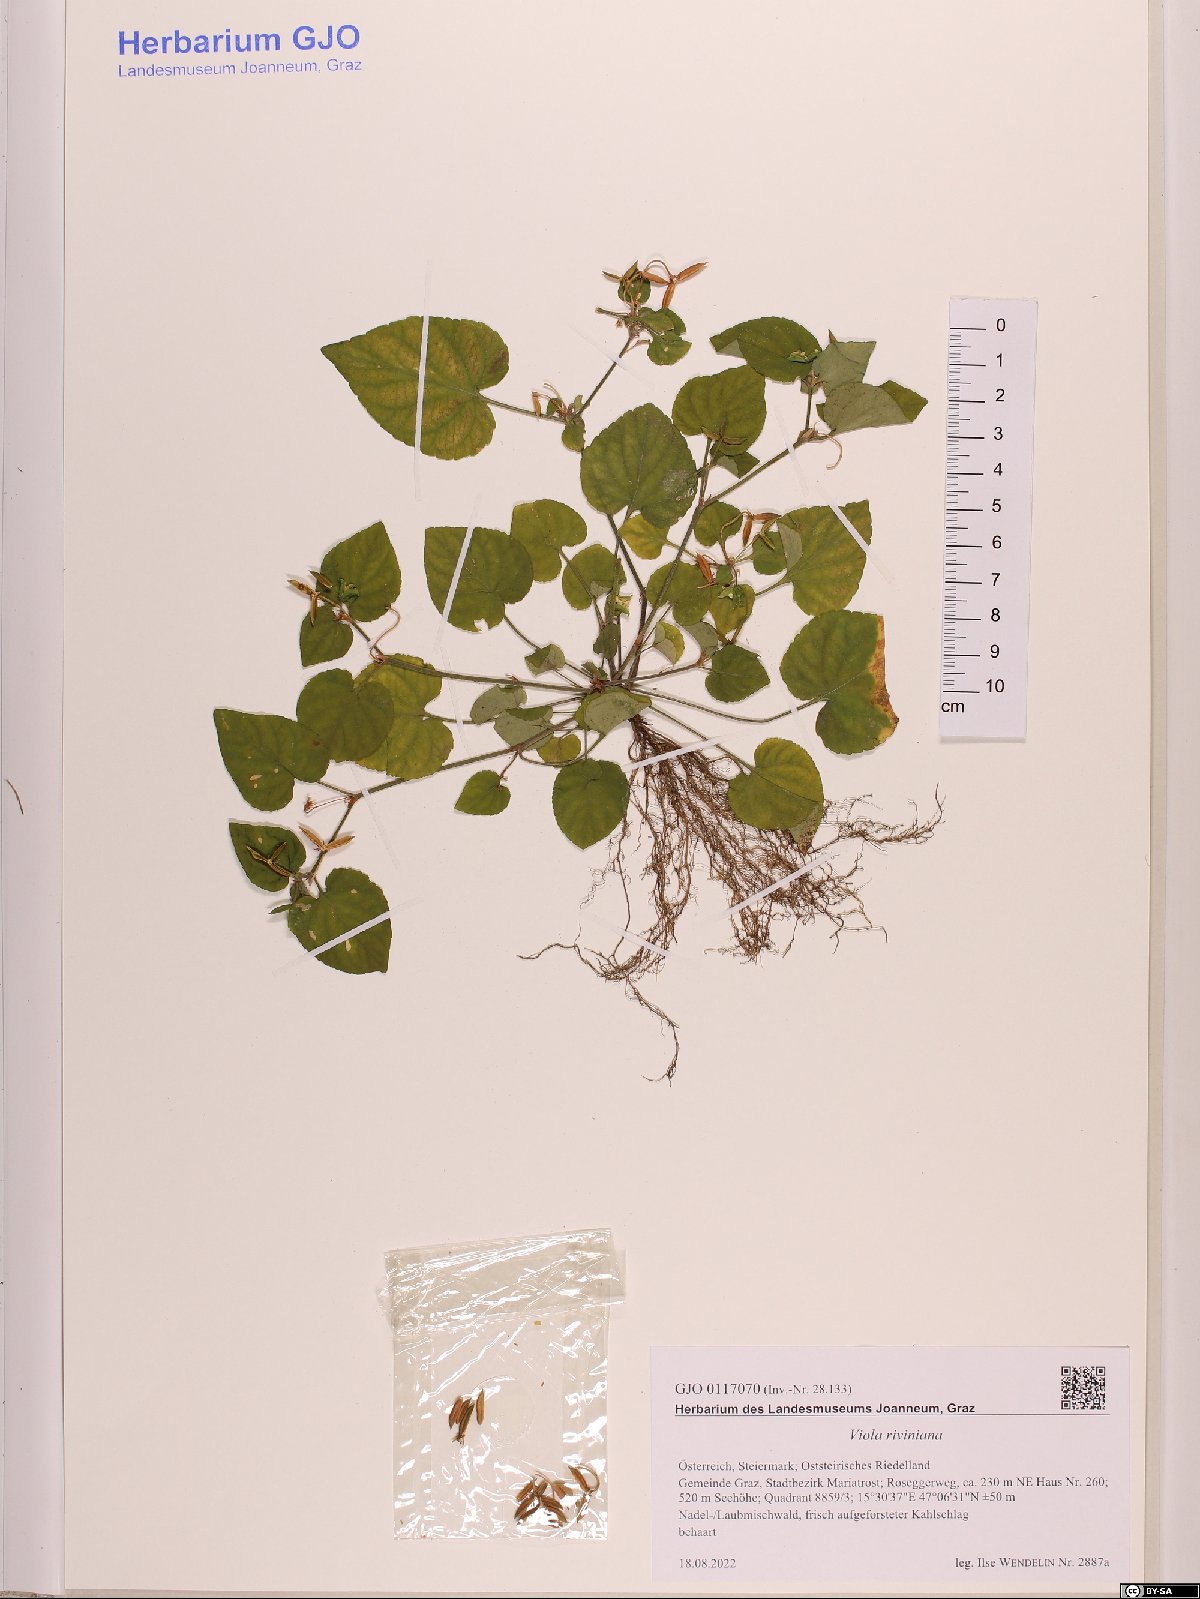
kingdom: Plantae
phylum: Tracheophyta
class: Magnoliopsida
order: Malpighiales
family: Violaceae
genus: Viola
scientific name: Viola riviniana
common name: Common dog-violet
